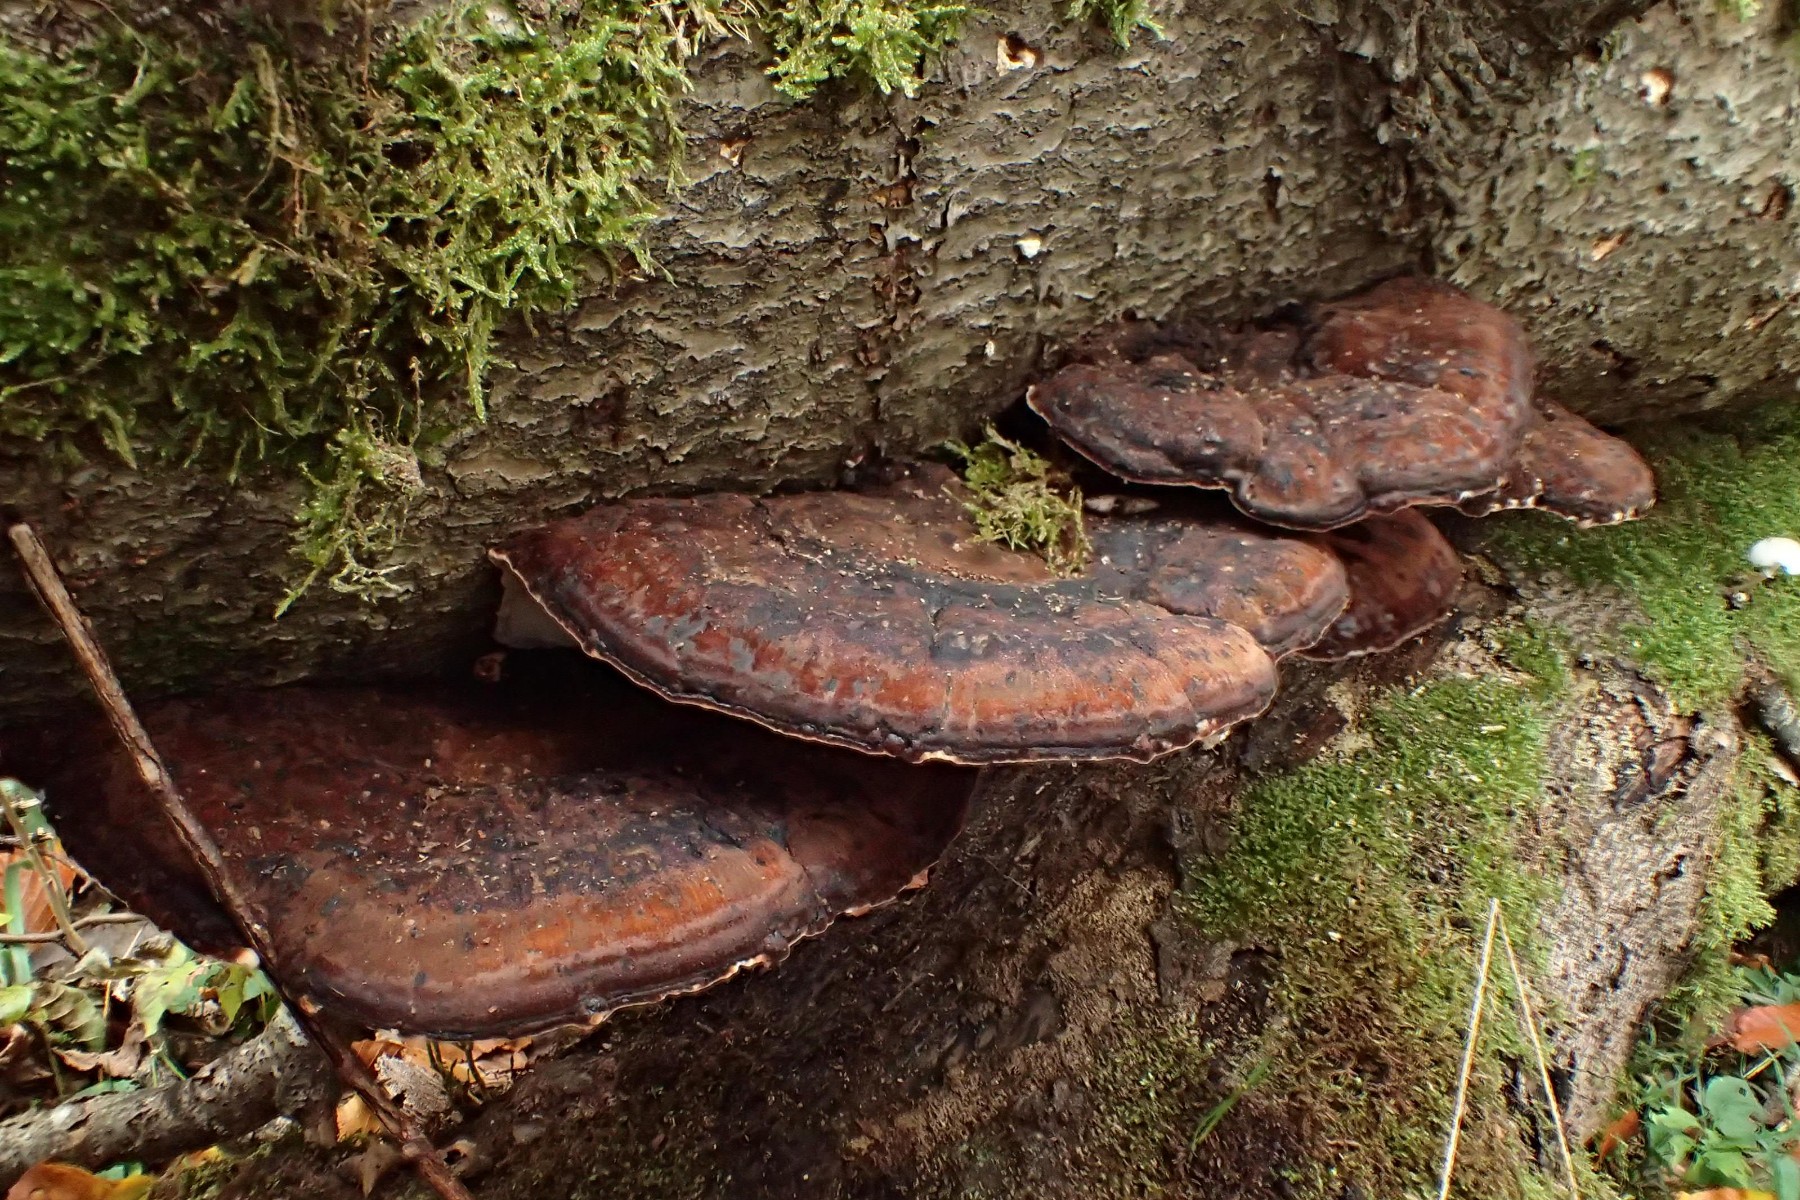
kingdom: Fungi
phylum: Basidiomycota
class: Agaricomycetes
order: Polyporales
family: Ischnodermataceae
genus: Ischnoderma
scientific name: Ischnoderma resinosum
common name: løv-tjæreporesvamp
